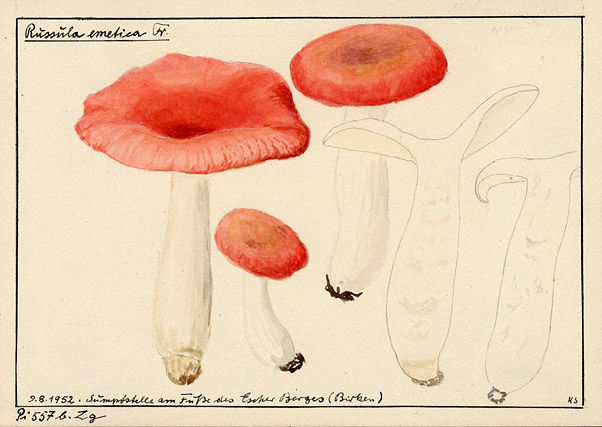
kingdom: Fungi
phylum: Basidiomycota
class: Agaricomycetes
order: Russulales
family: Russulaceae
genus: Russula
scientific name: Russula
